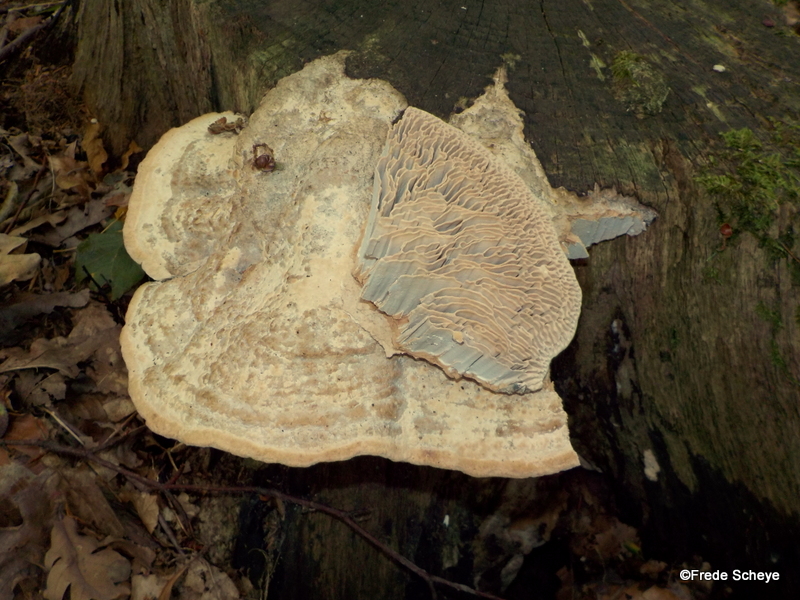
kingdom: Fungi
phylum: Basidiomycota
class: Agaricomycetes
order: Polyporales
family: Fomitopsidaceae
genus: Daedalea
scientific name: Daedalea quercina
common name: ege-labyrintsvamp
